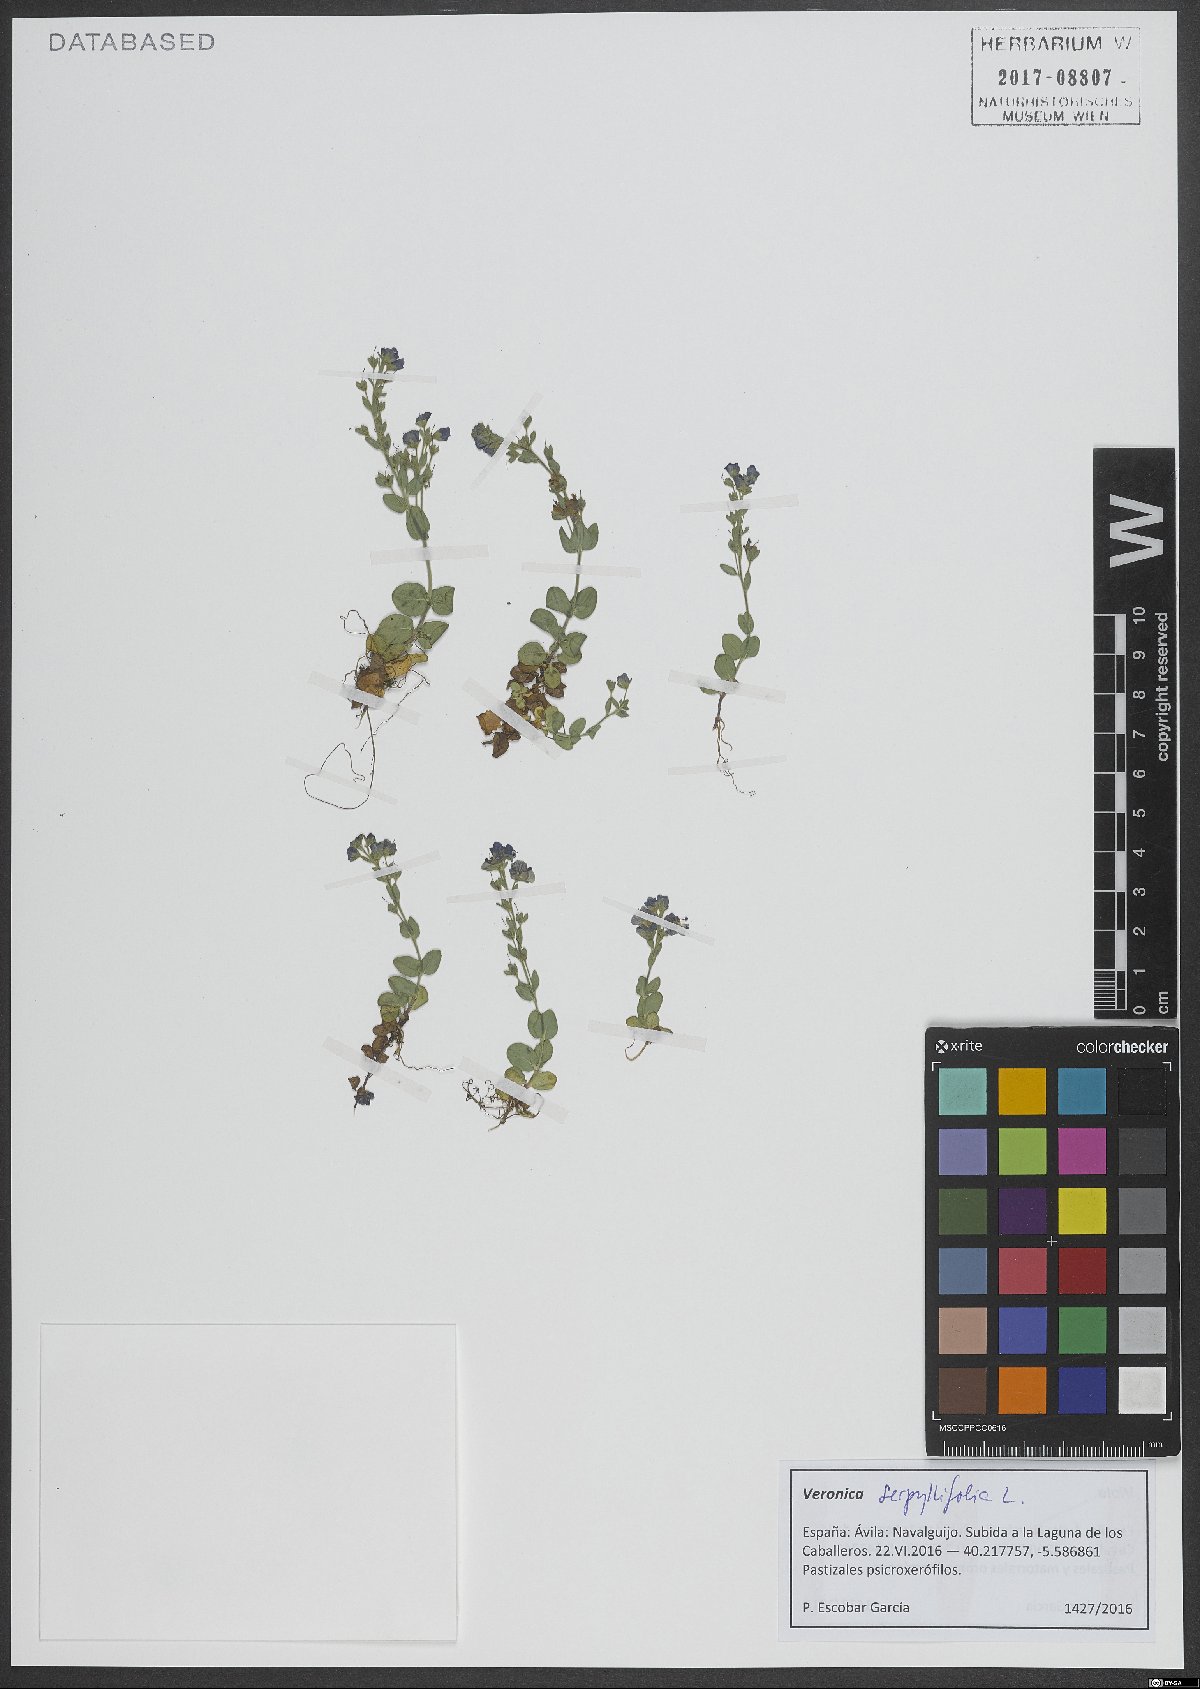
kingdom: Plantae
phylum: Tracheophyta
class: Magnoliopsida
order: Lamiales
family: Plantaginaceae
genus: Veronica
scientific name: Veronica serpyllifolia
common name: Thyme-leaved speedwell
